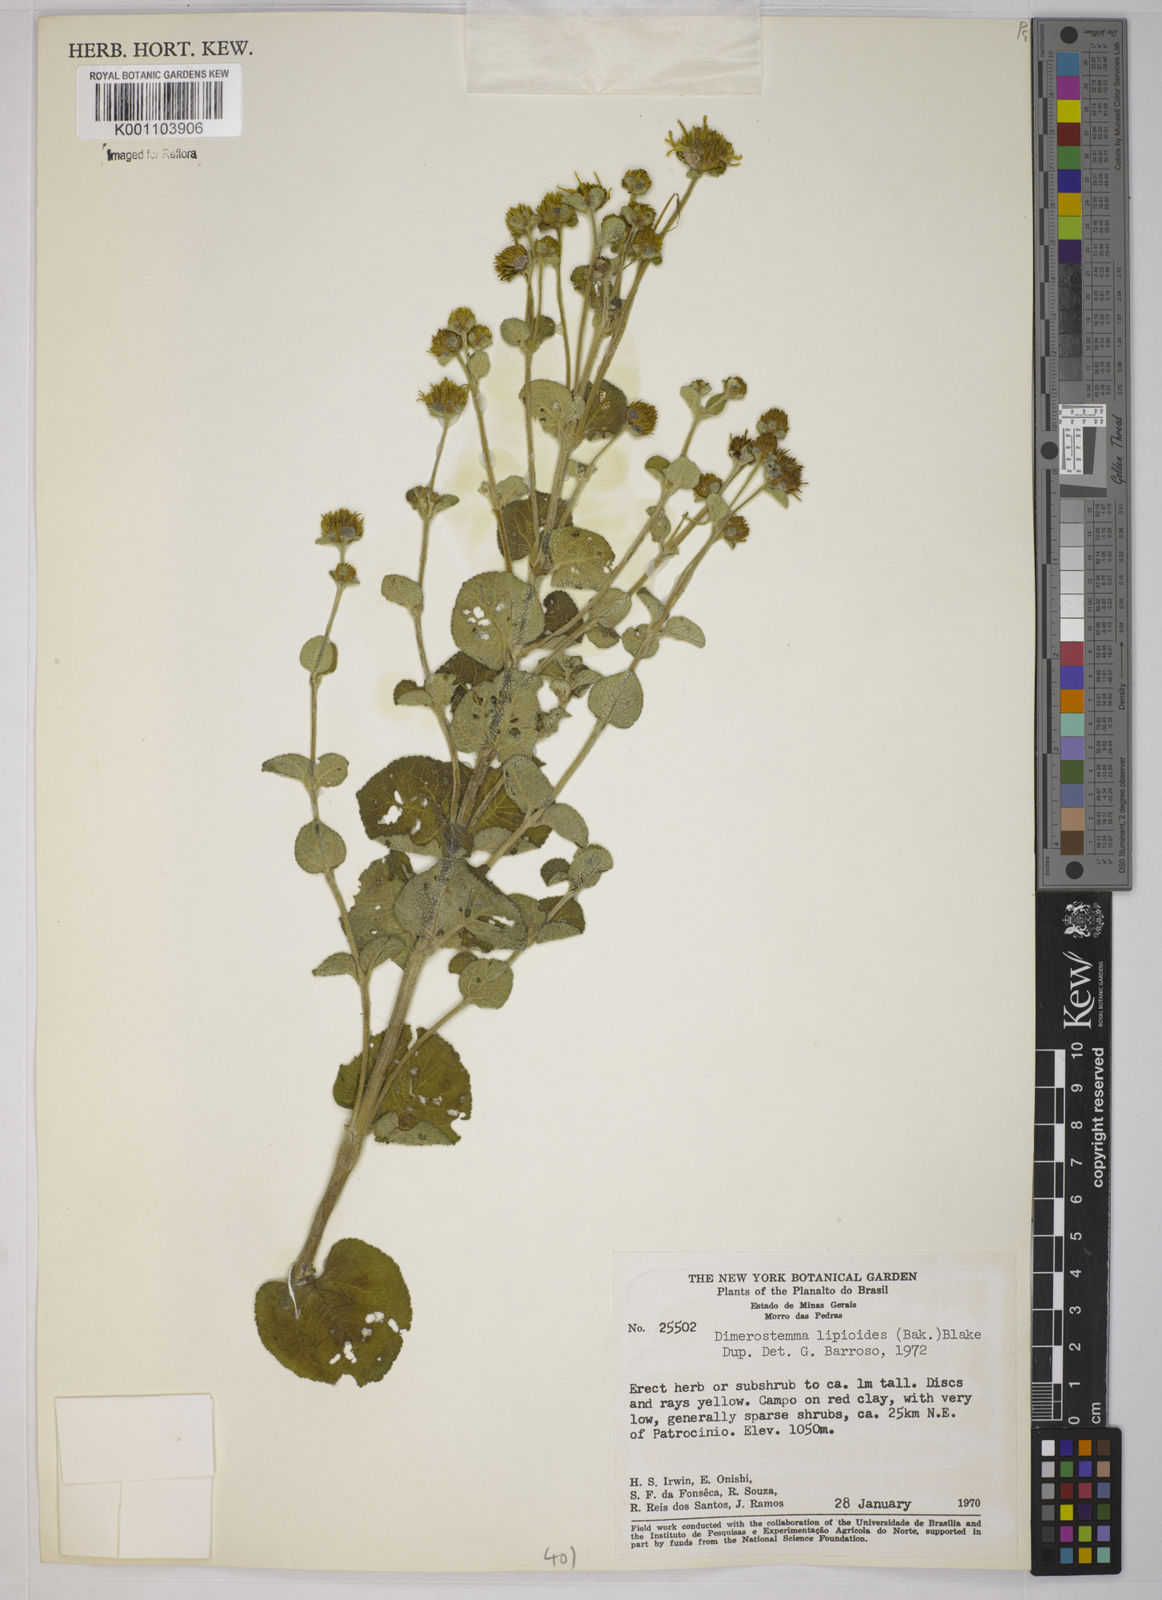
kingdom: Plantae
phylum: Tracheophyta
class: Magnoliopsida
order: Asterales
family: Asteraceae
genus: Dimerostemma
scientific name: Dimerostemma brasilianum
